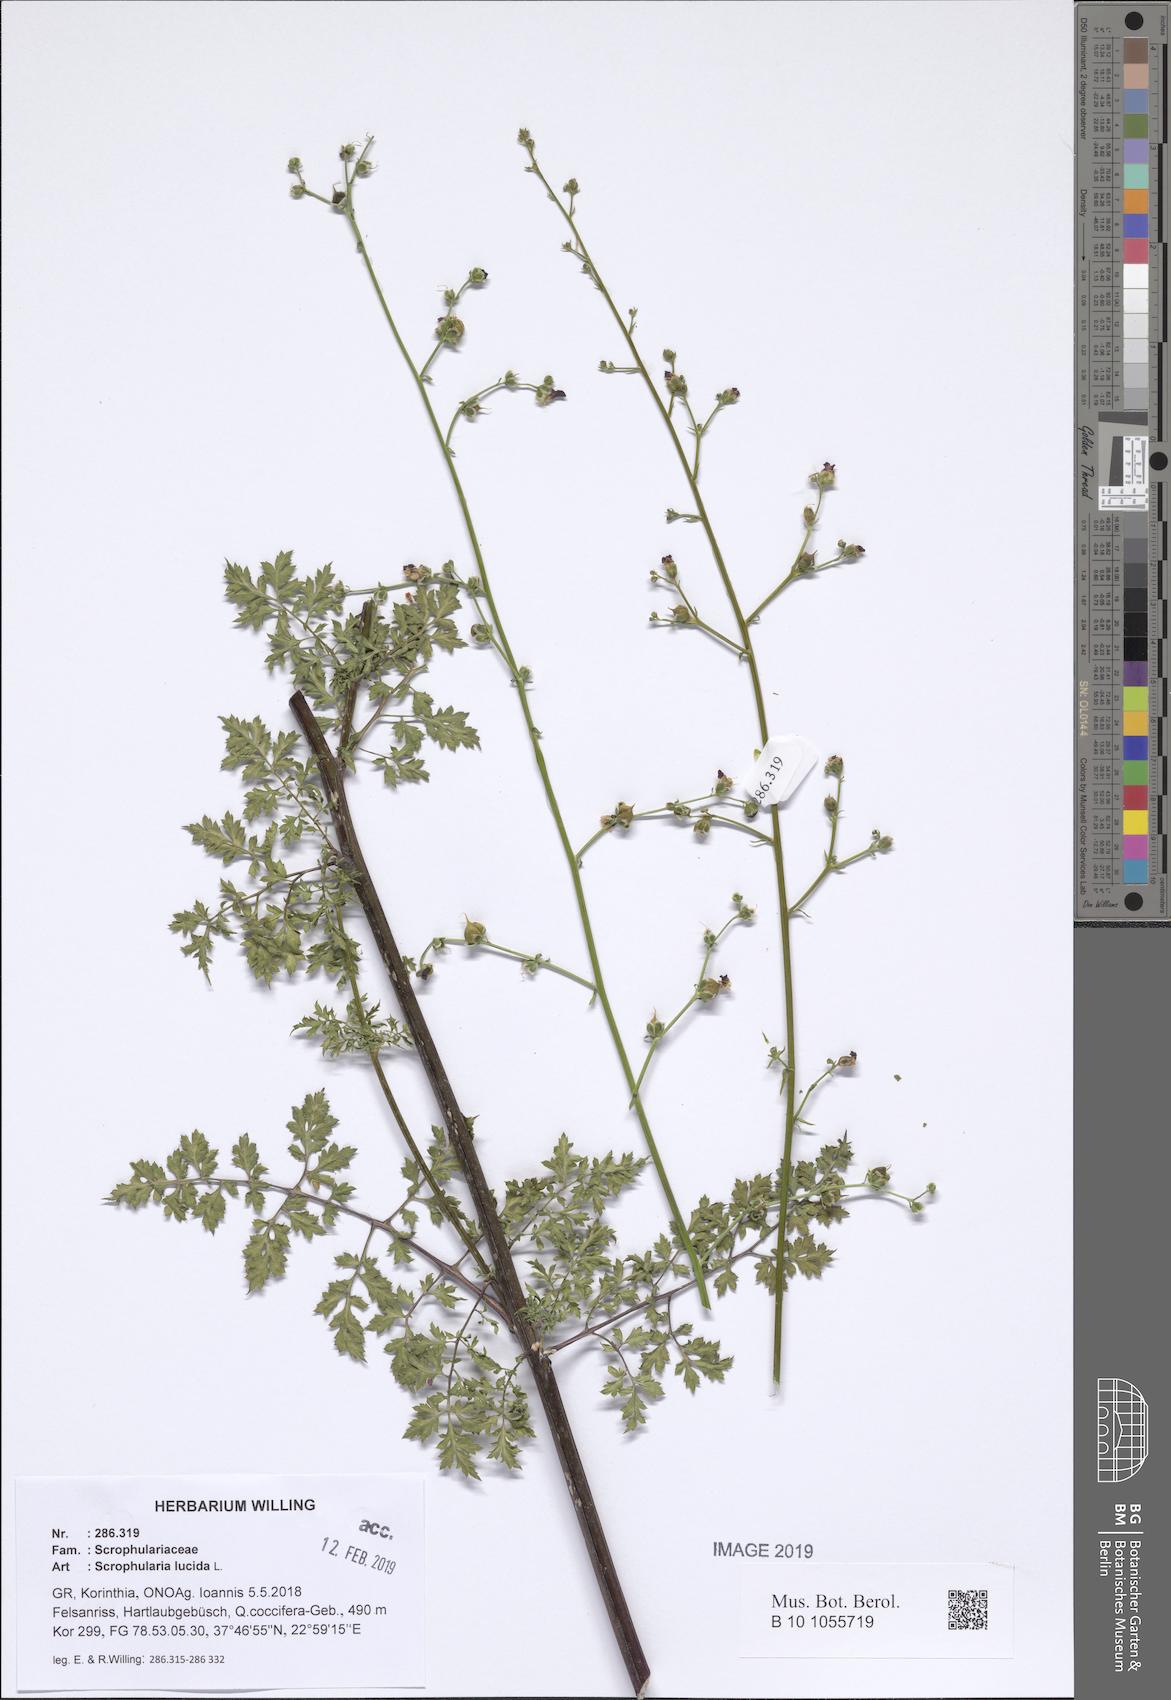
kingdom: Plantae
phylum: Tracheophyta
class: Magnoliopsida
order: Lamiales
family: Scrophulariaceae
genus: Scrophularia
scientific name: Scrophularia lucida
